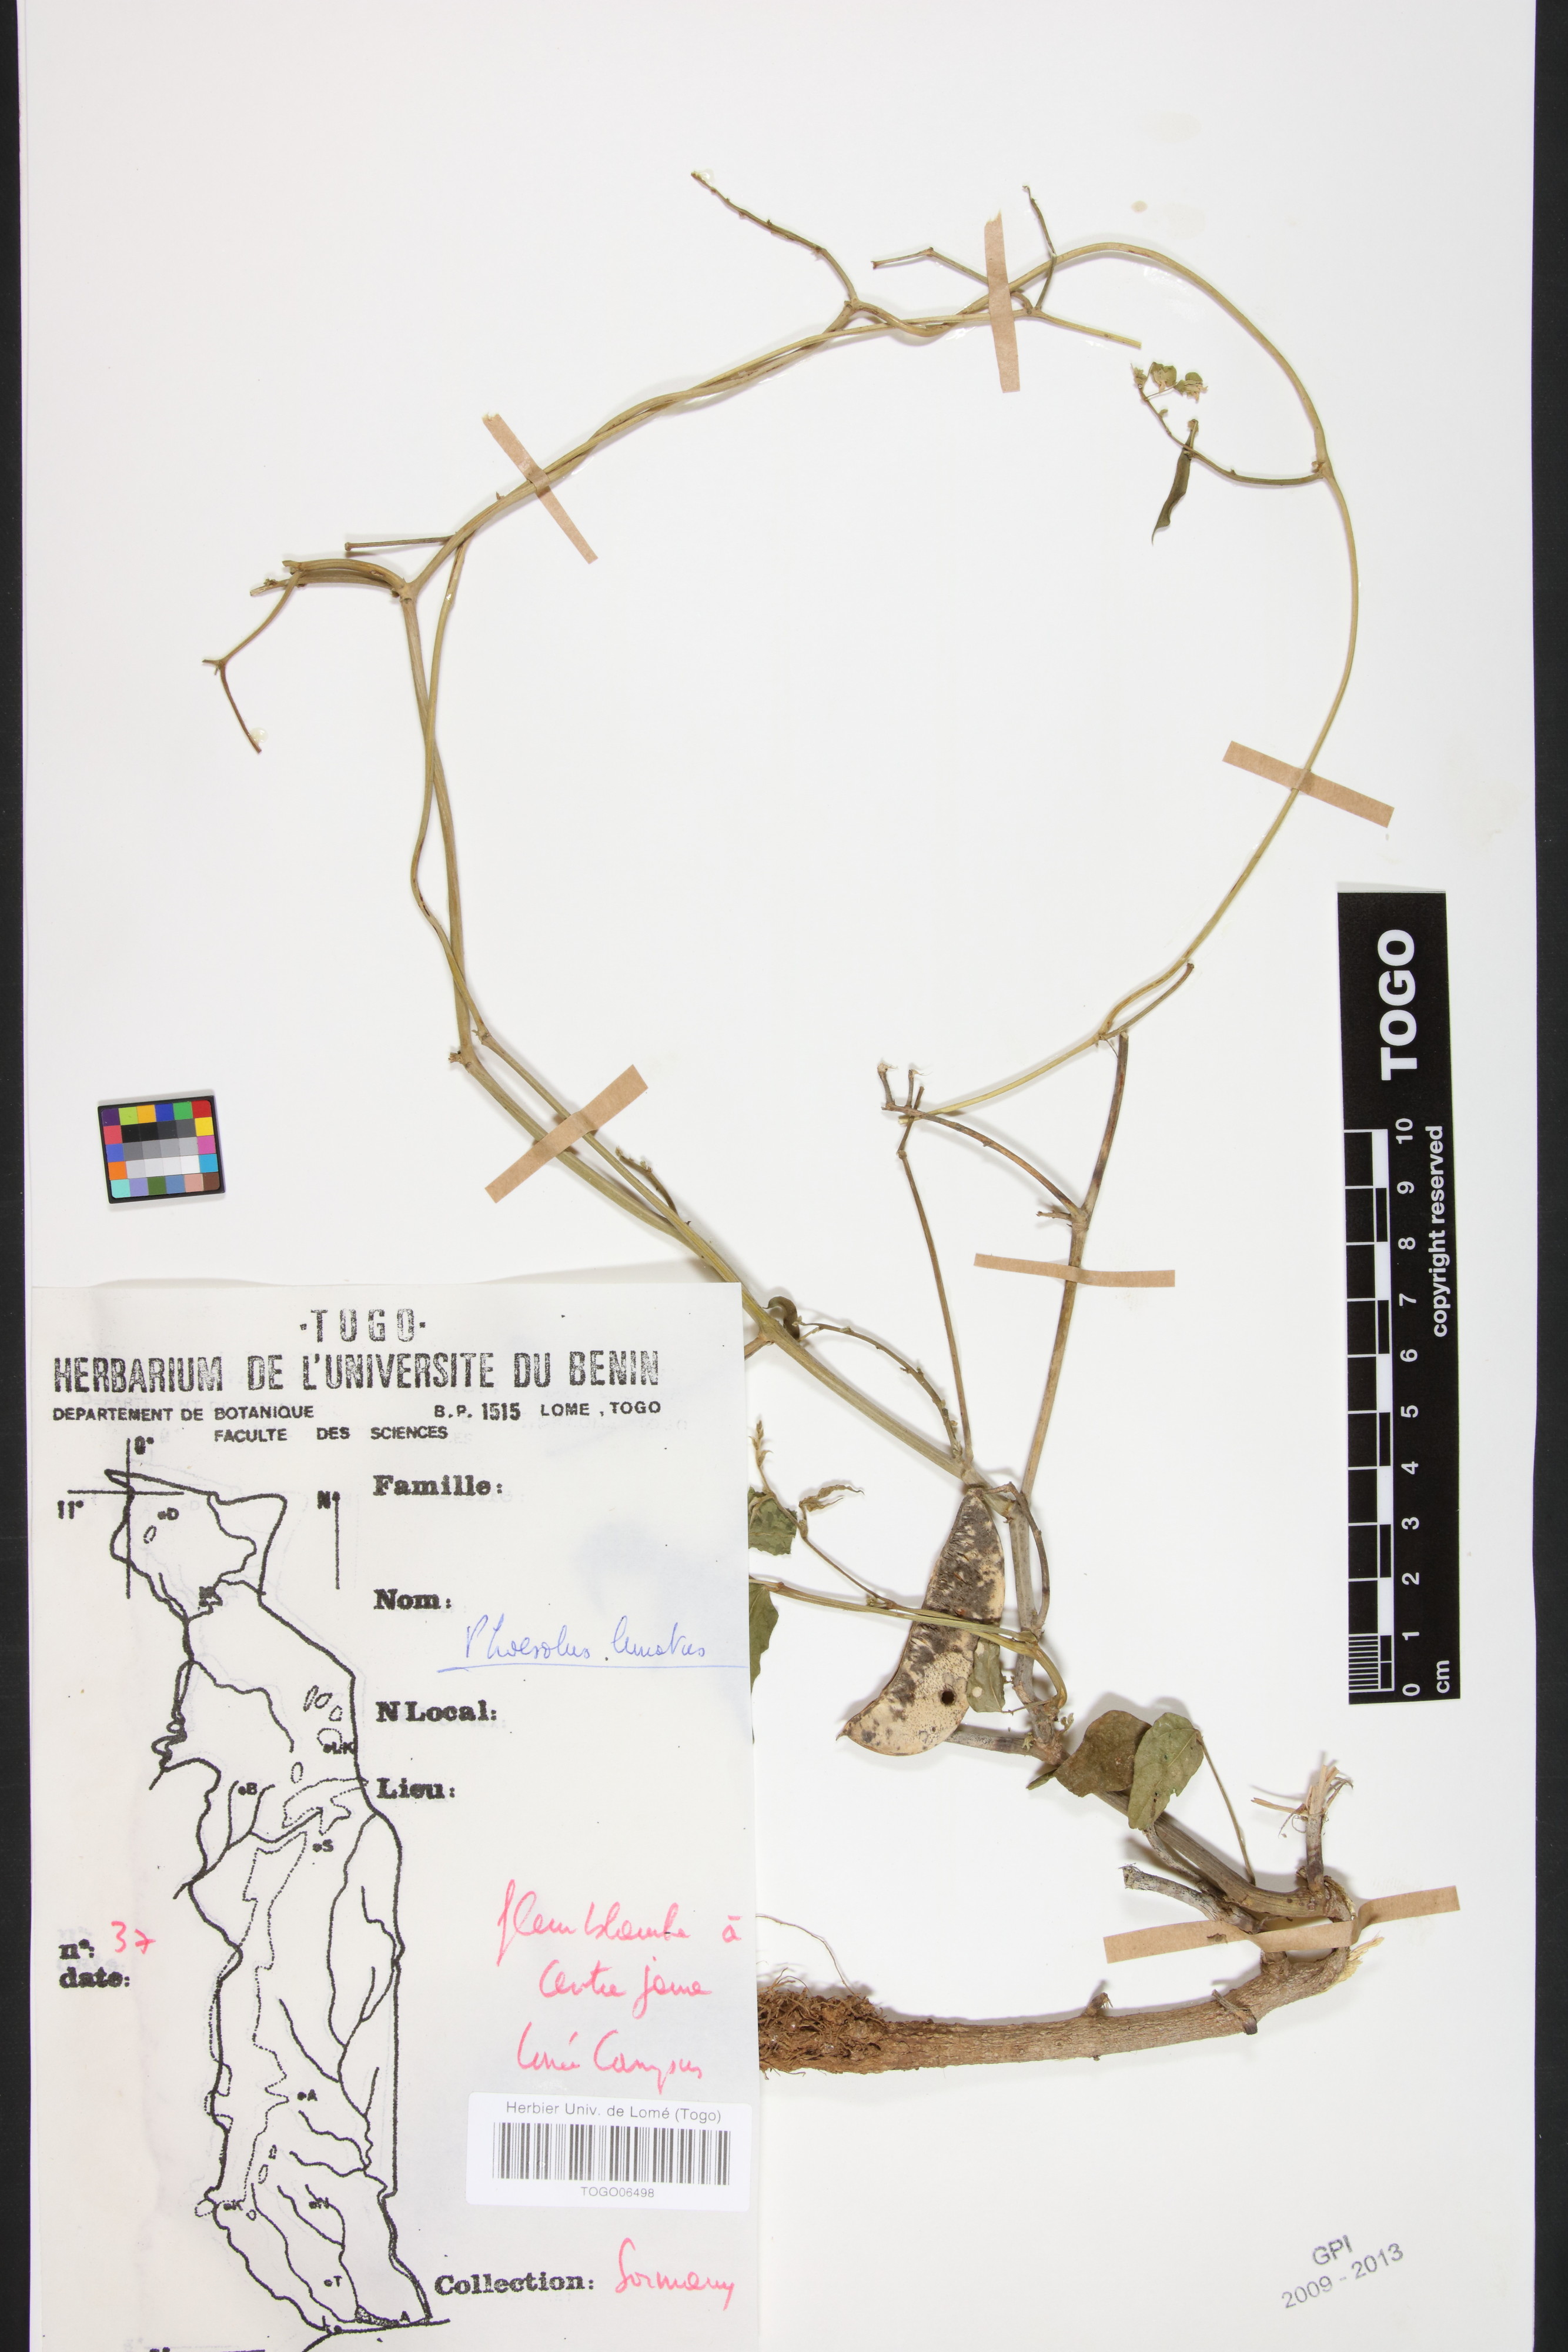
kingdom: Plantae
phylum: Tracheophyta
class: Magnoliopsida
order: Fabales
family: Fabaceae
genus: Phaseolus
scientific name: Phaseolus lunatus
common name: Sieva bean
